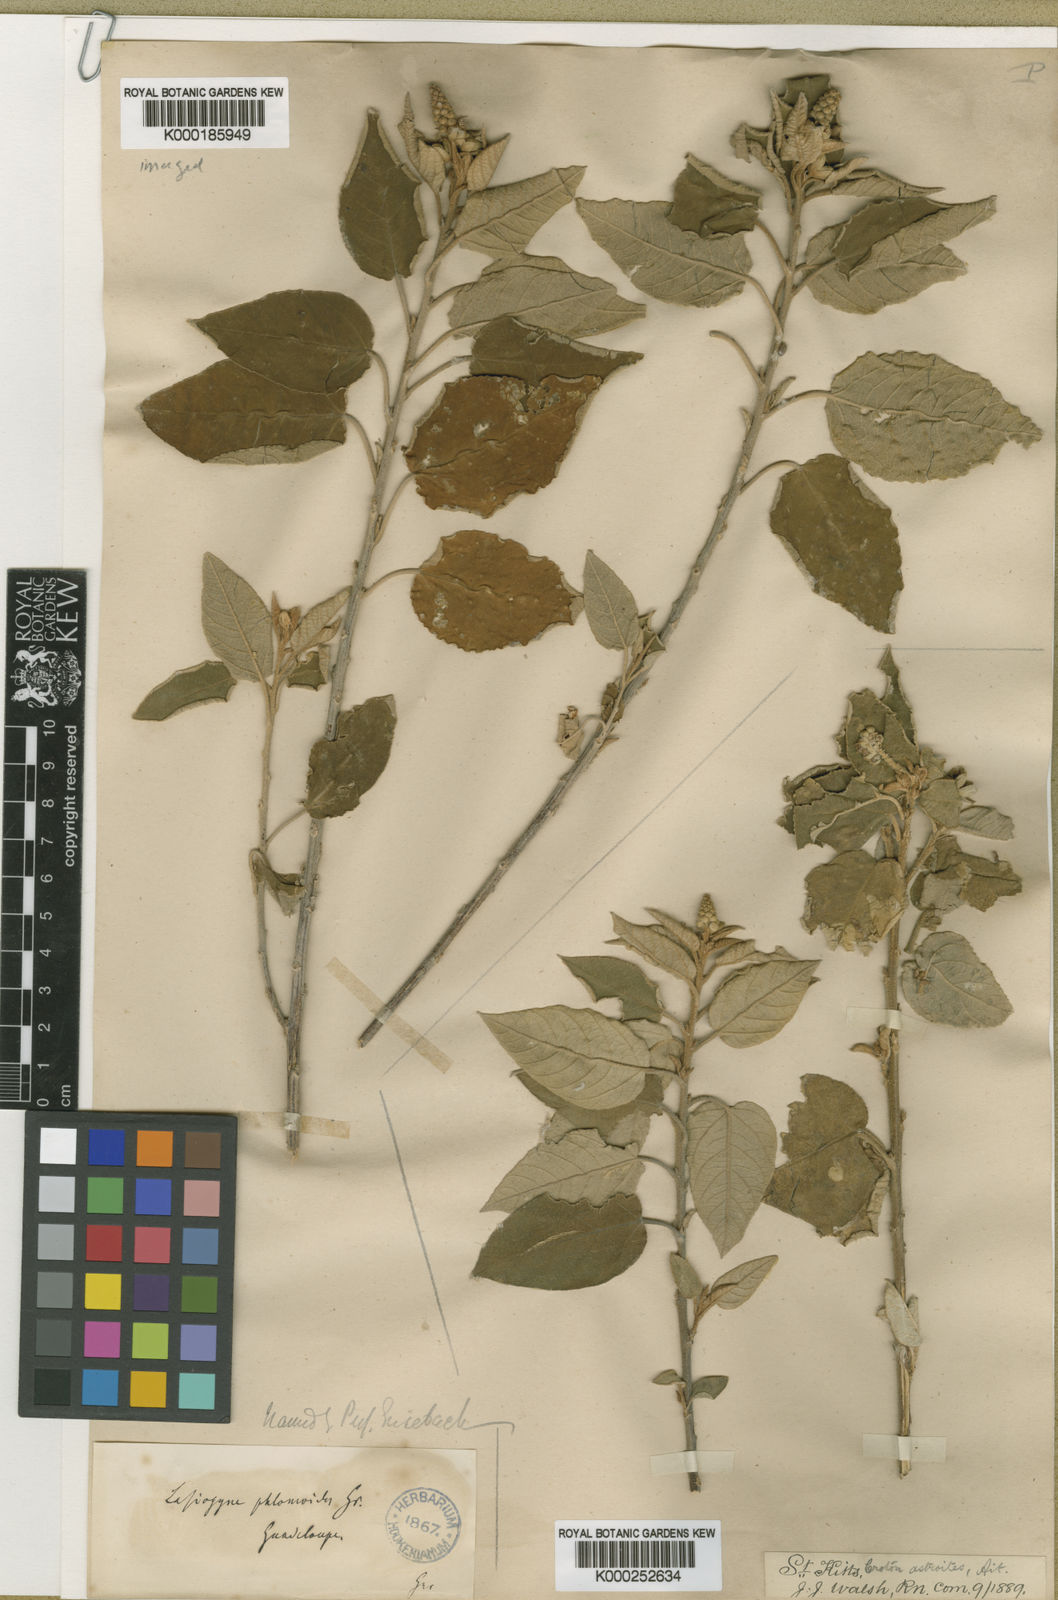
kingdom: Plantae
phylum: Tracheophyta
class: Magnoliopsida
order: Malpighiales
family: Euphorbiaceae
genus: Croton
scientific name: Croton
